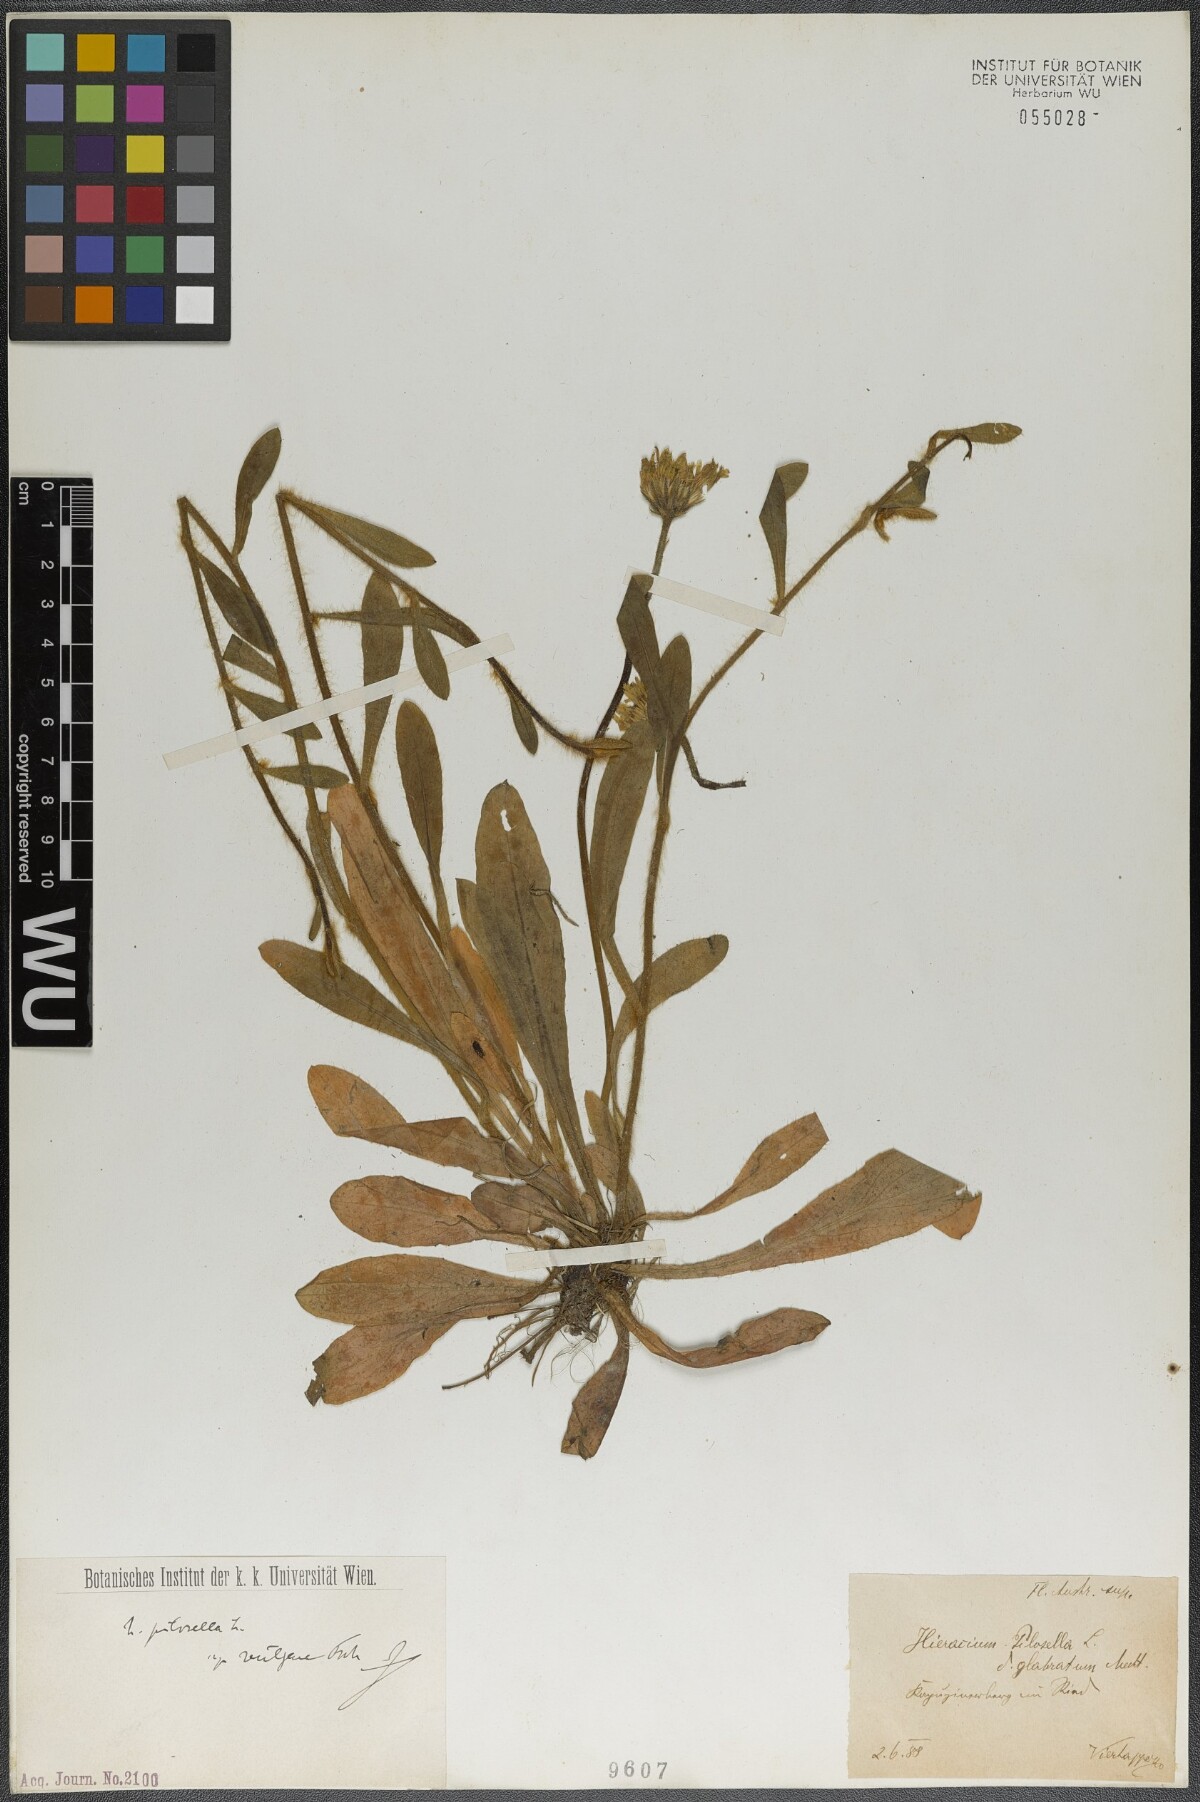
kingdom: Plantae
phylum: Tracheophyta
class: Magnoliopsida
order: Asterales
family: Asteraceae
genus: Pilosella
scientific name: Pilosella officinarum
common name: Mouse-ear hawkweed
